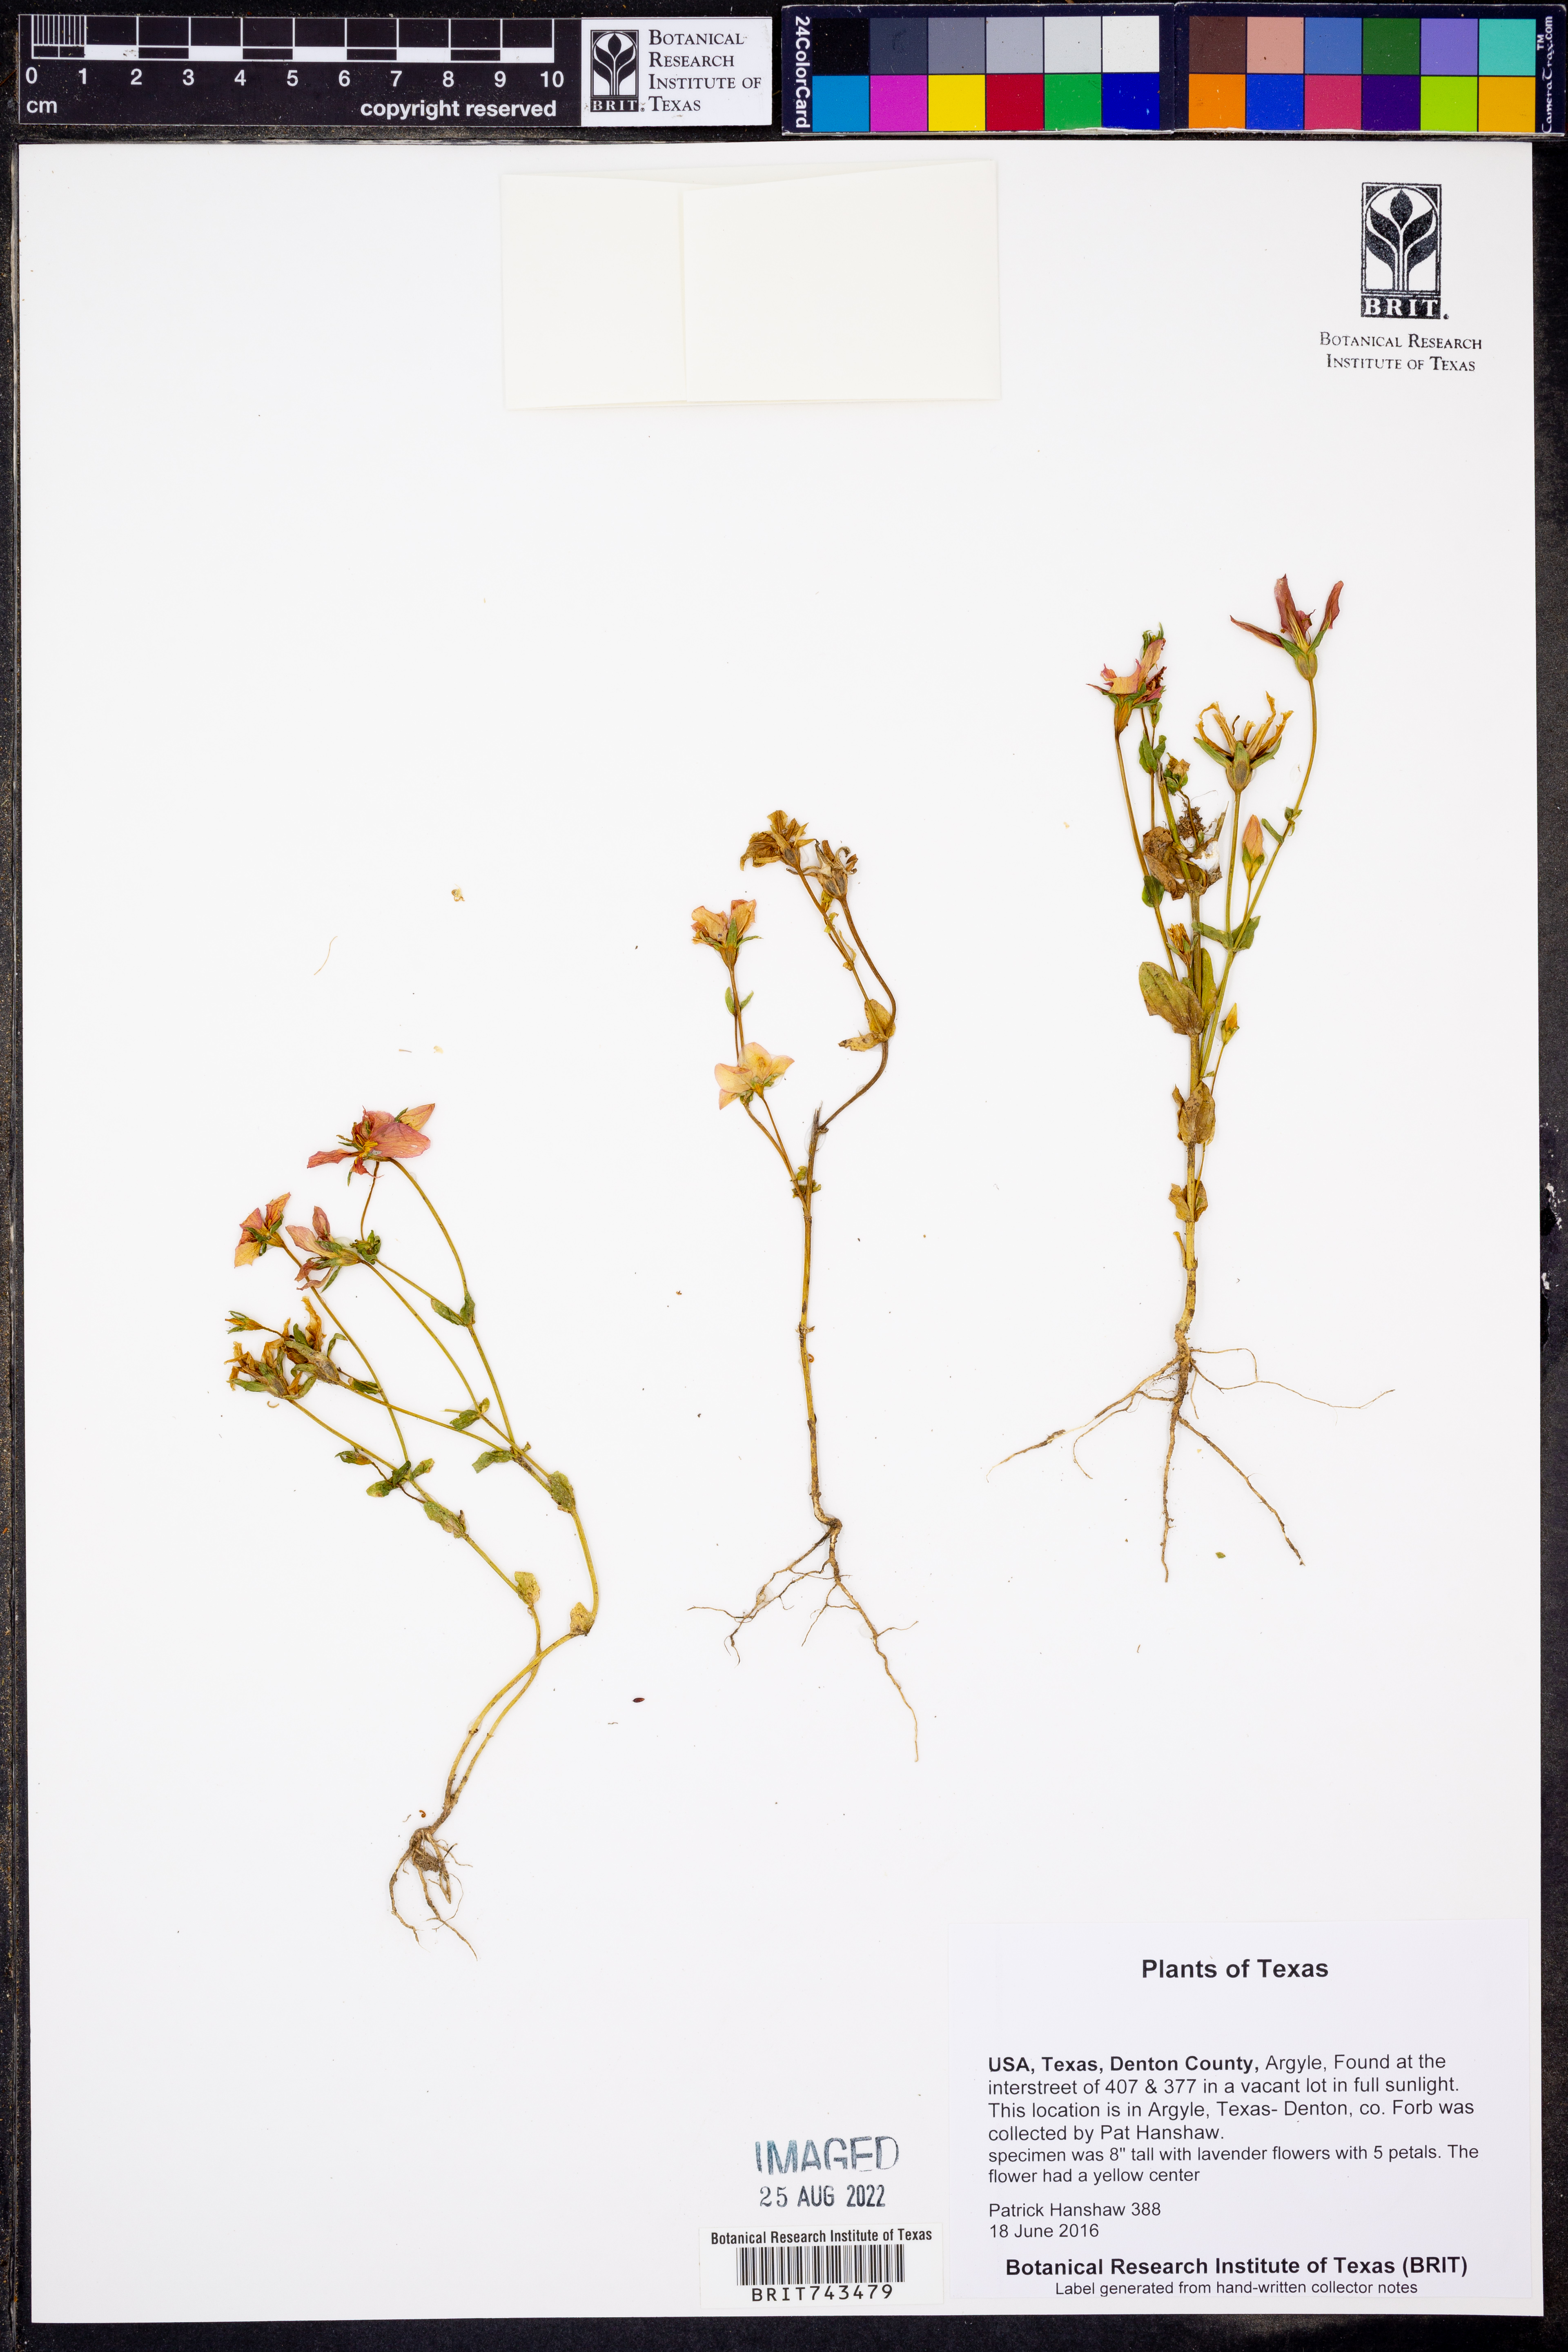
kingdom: Plantae
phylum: Tracheophyta
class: Magnoliopsida
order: Asterales
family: Campanulaceae
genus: Triodanis
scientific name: Triodanis perfoliata
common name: Clasping venus' looking-glass
